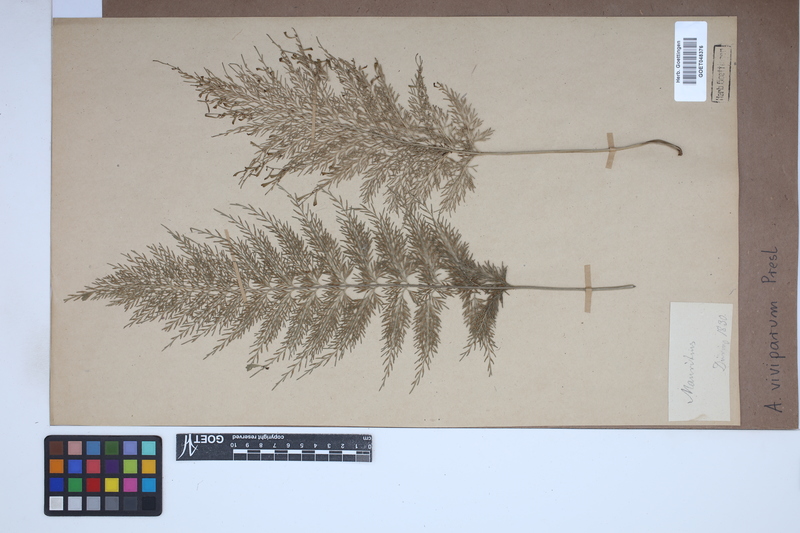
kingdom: Plantae
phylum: Tracheophyta
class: Polypodiopsida
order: Polypodiales
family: Aspleniaceae
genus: Asplenium
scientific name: Asplenium daucifolium
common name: Mauritius spleenwort
